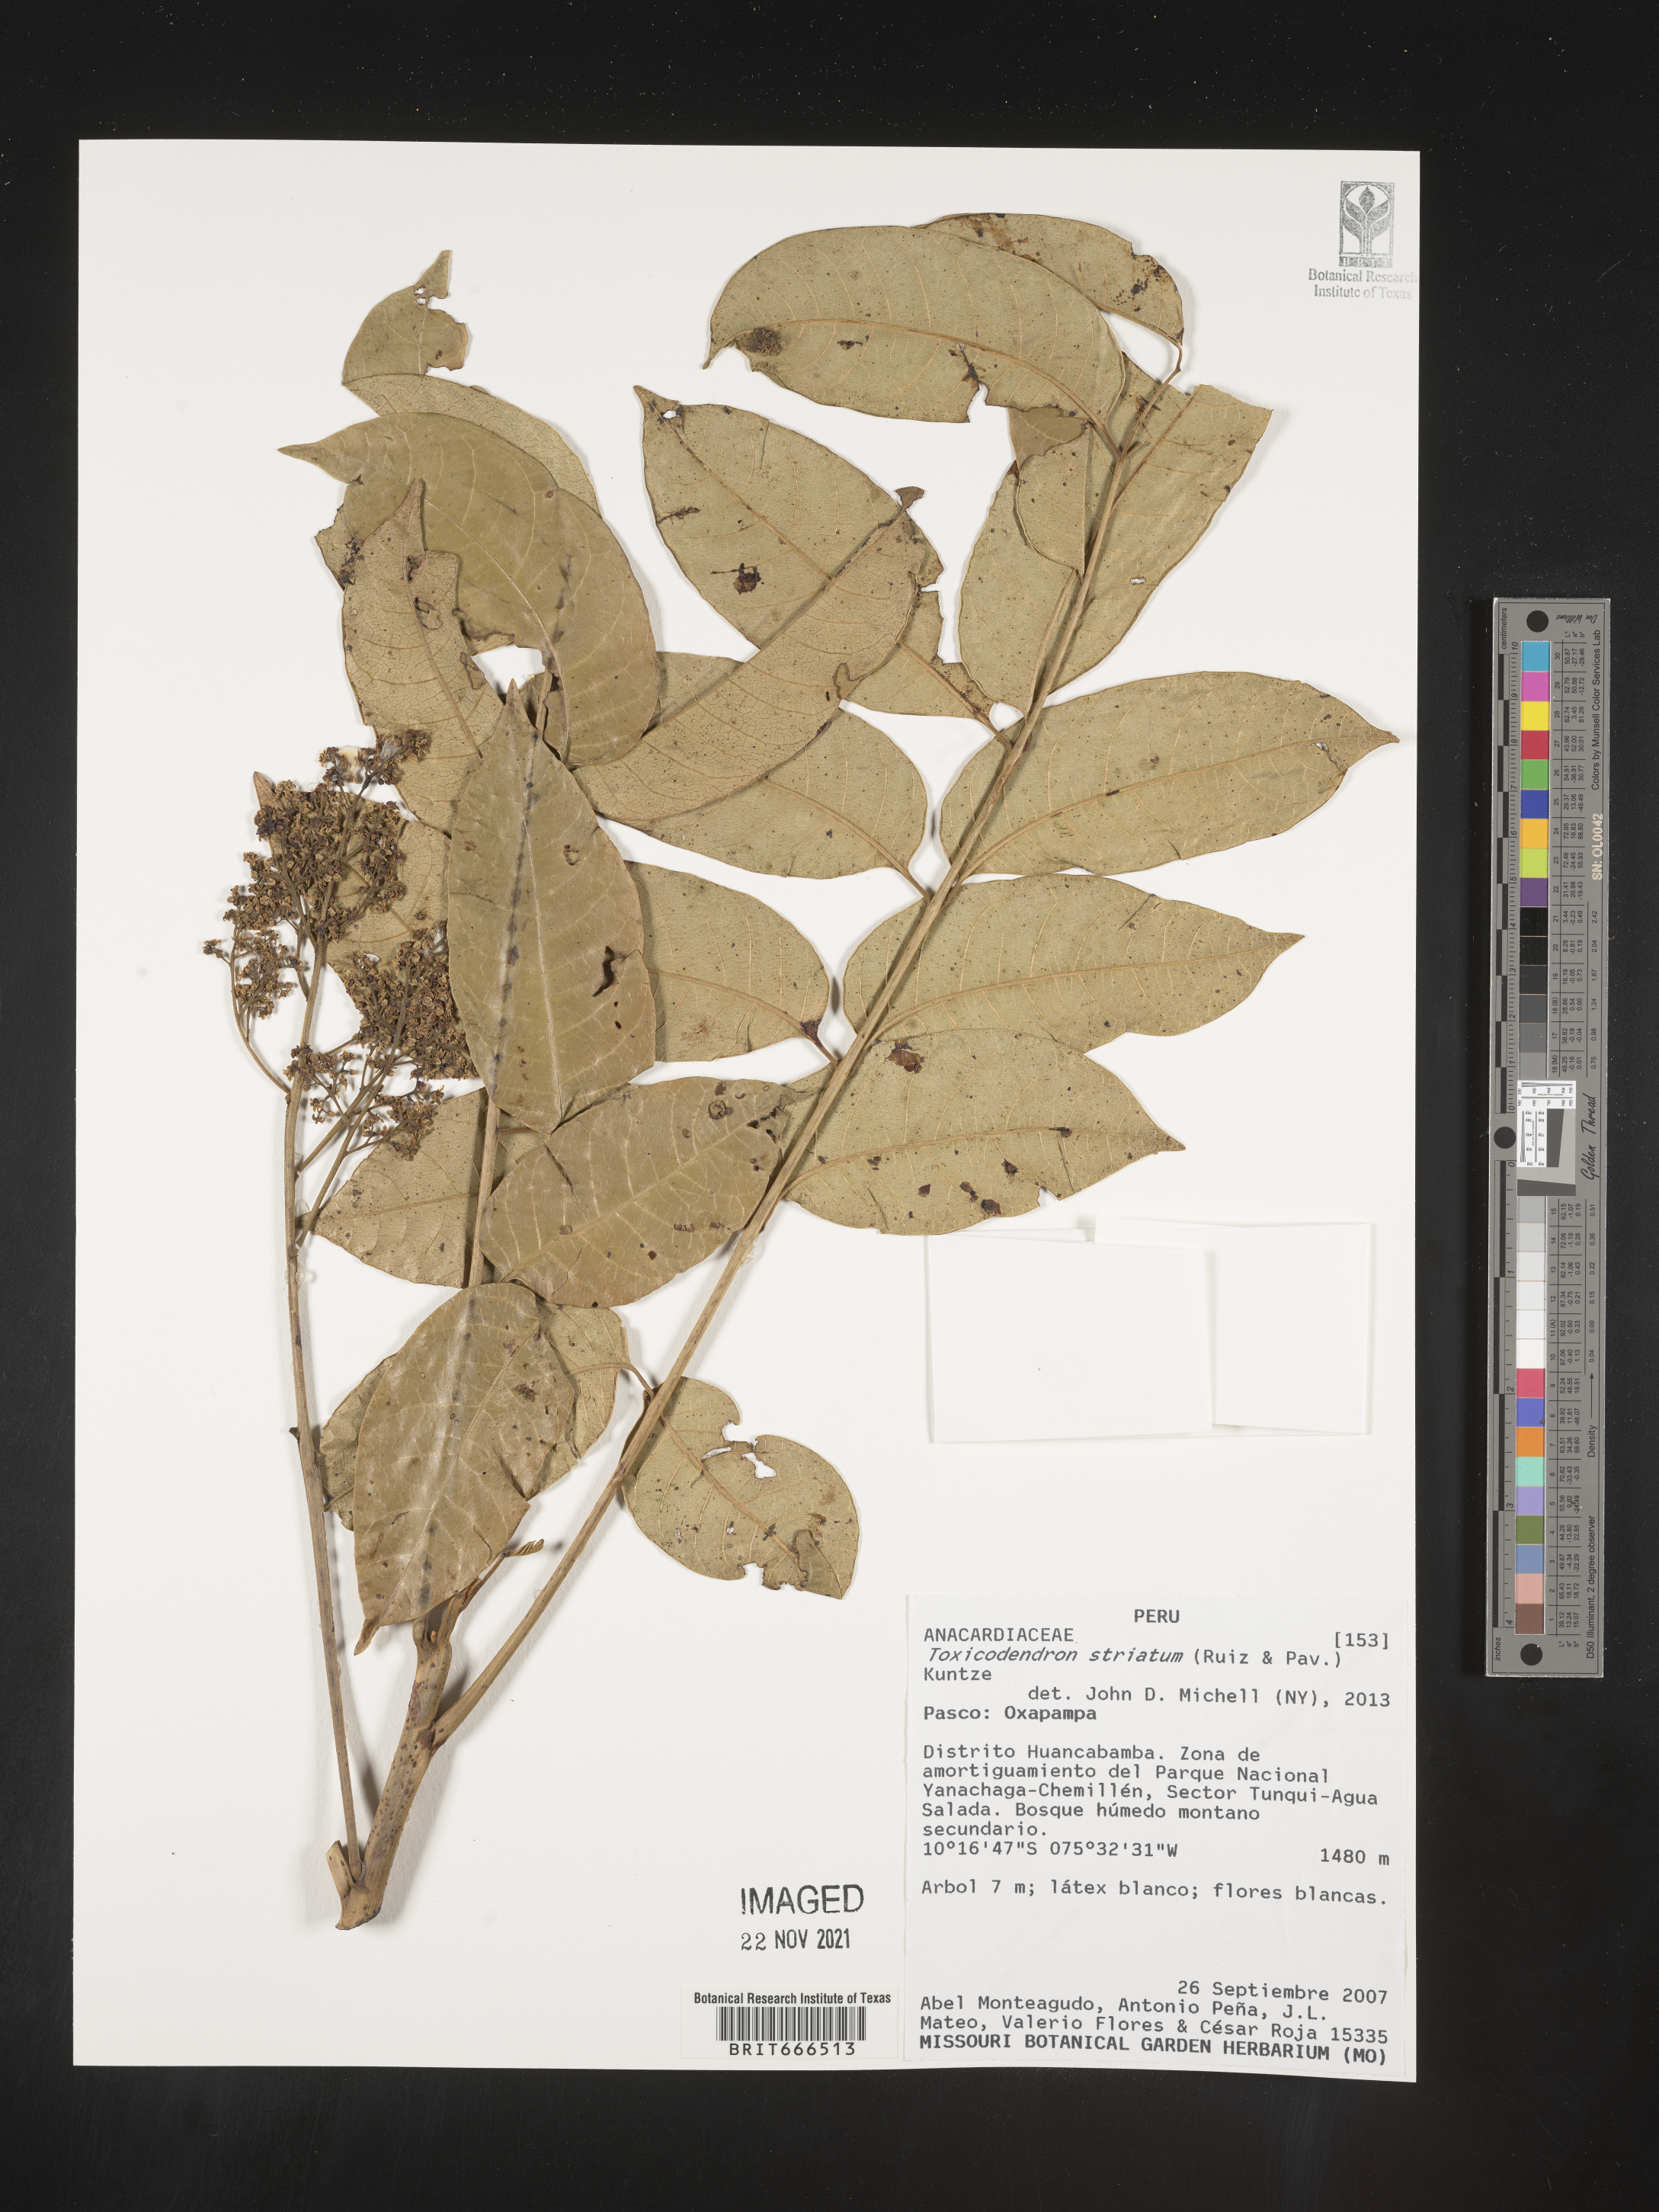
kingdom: Plantae
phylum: Tracheophyta
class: Magnoliopsida
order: Sapindales
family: Anacardiaceae
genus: Toxicodendron
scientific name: Toxicodendron
